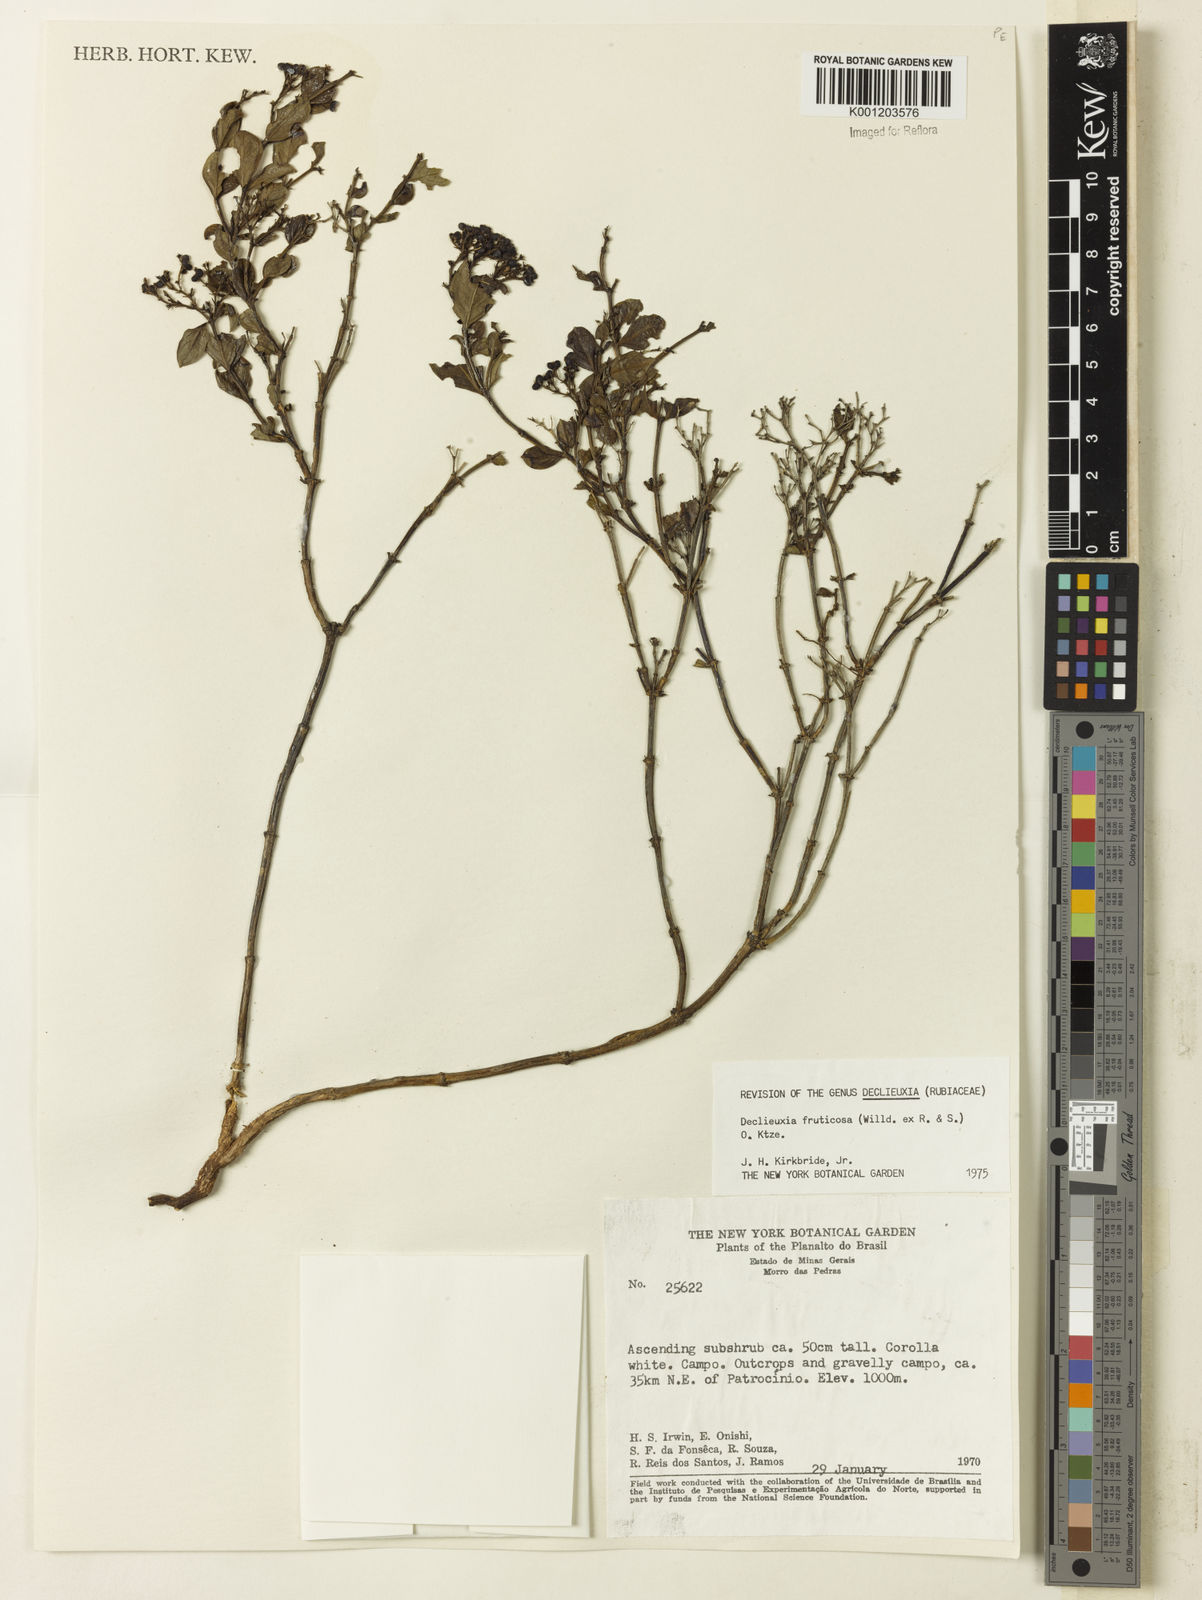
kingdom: Plantae
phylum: Tracheophyta
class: Magnoliopsida
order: Gentianales
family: Rubiaceae
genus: Declieuxia
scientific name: Declieuxia fruticosa
